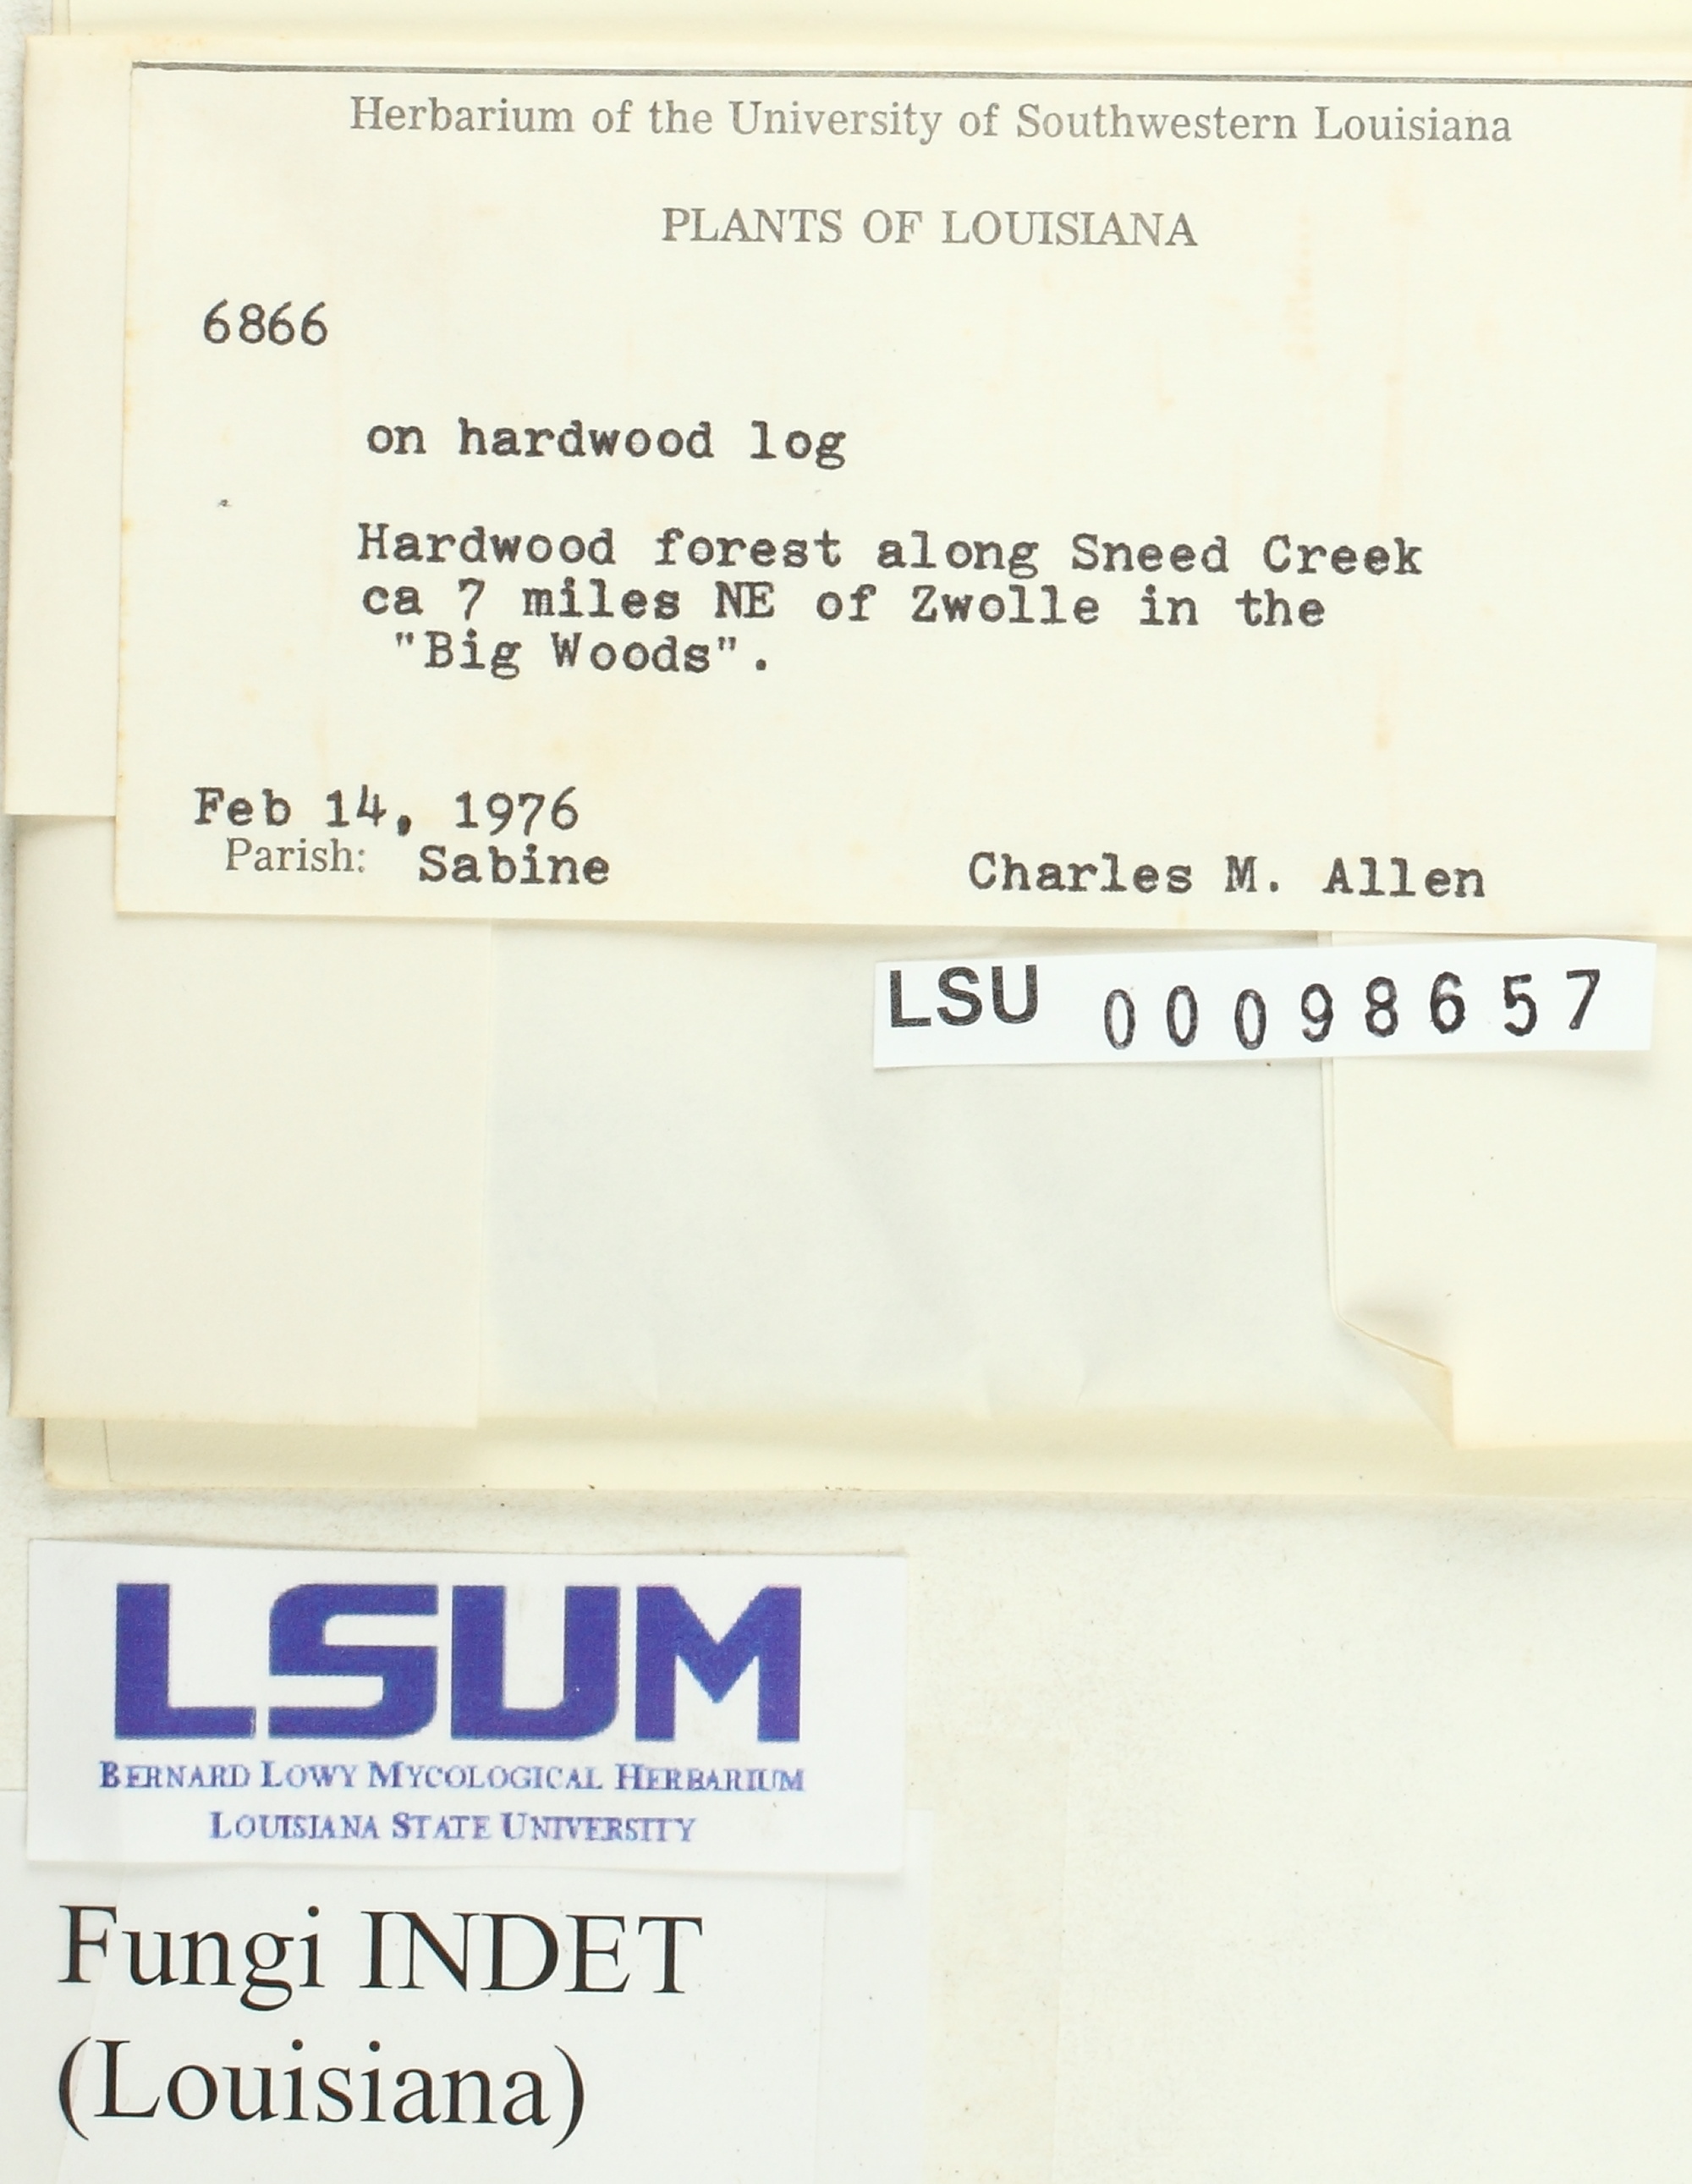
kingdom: Fungi
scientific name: Fungi
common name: Fungi
